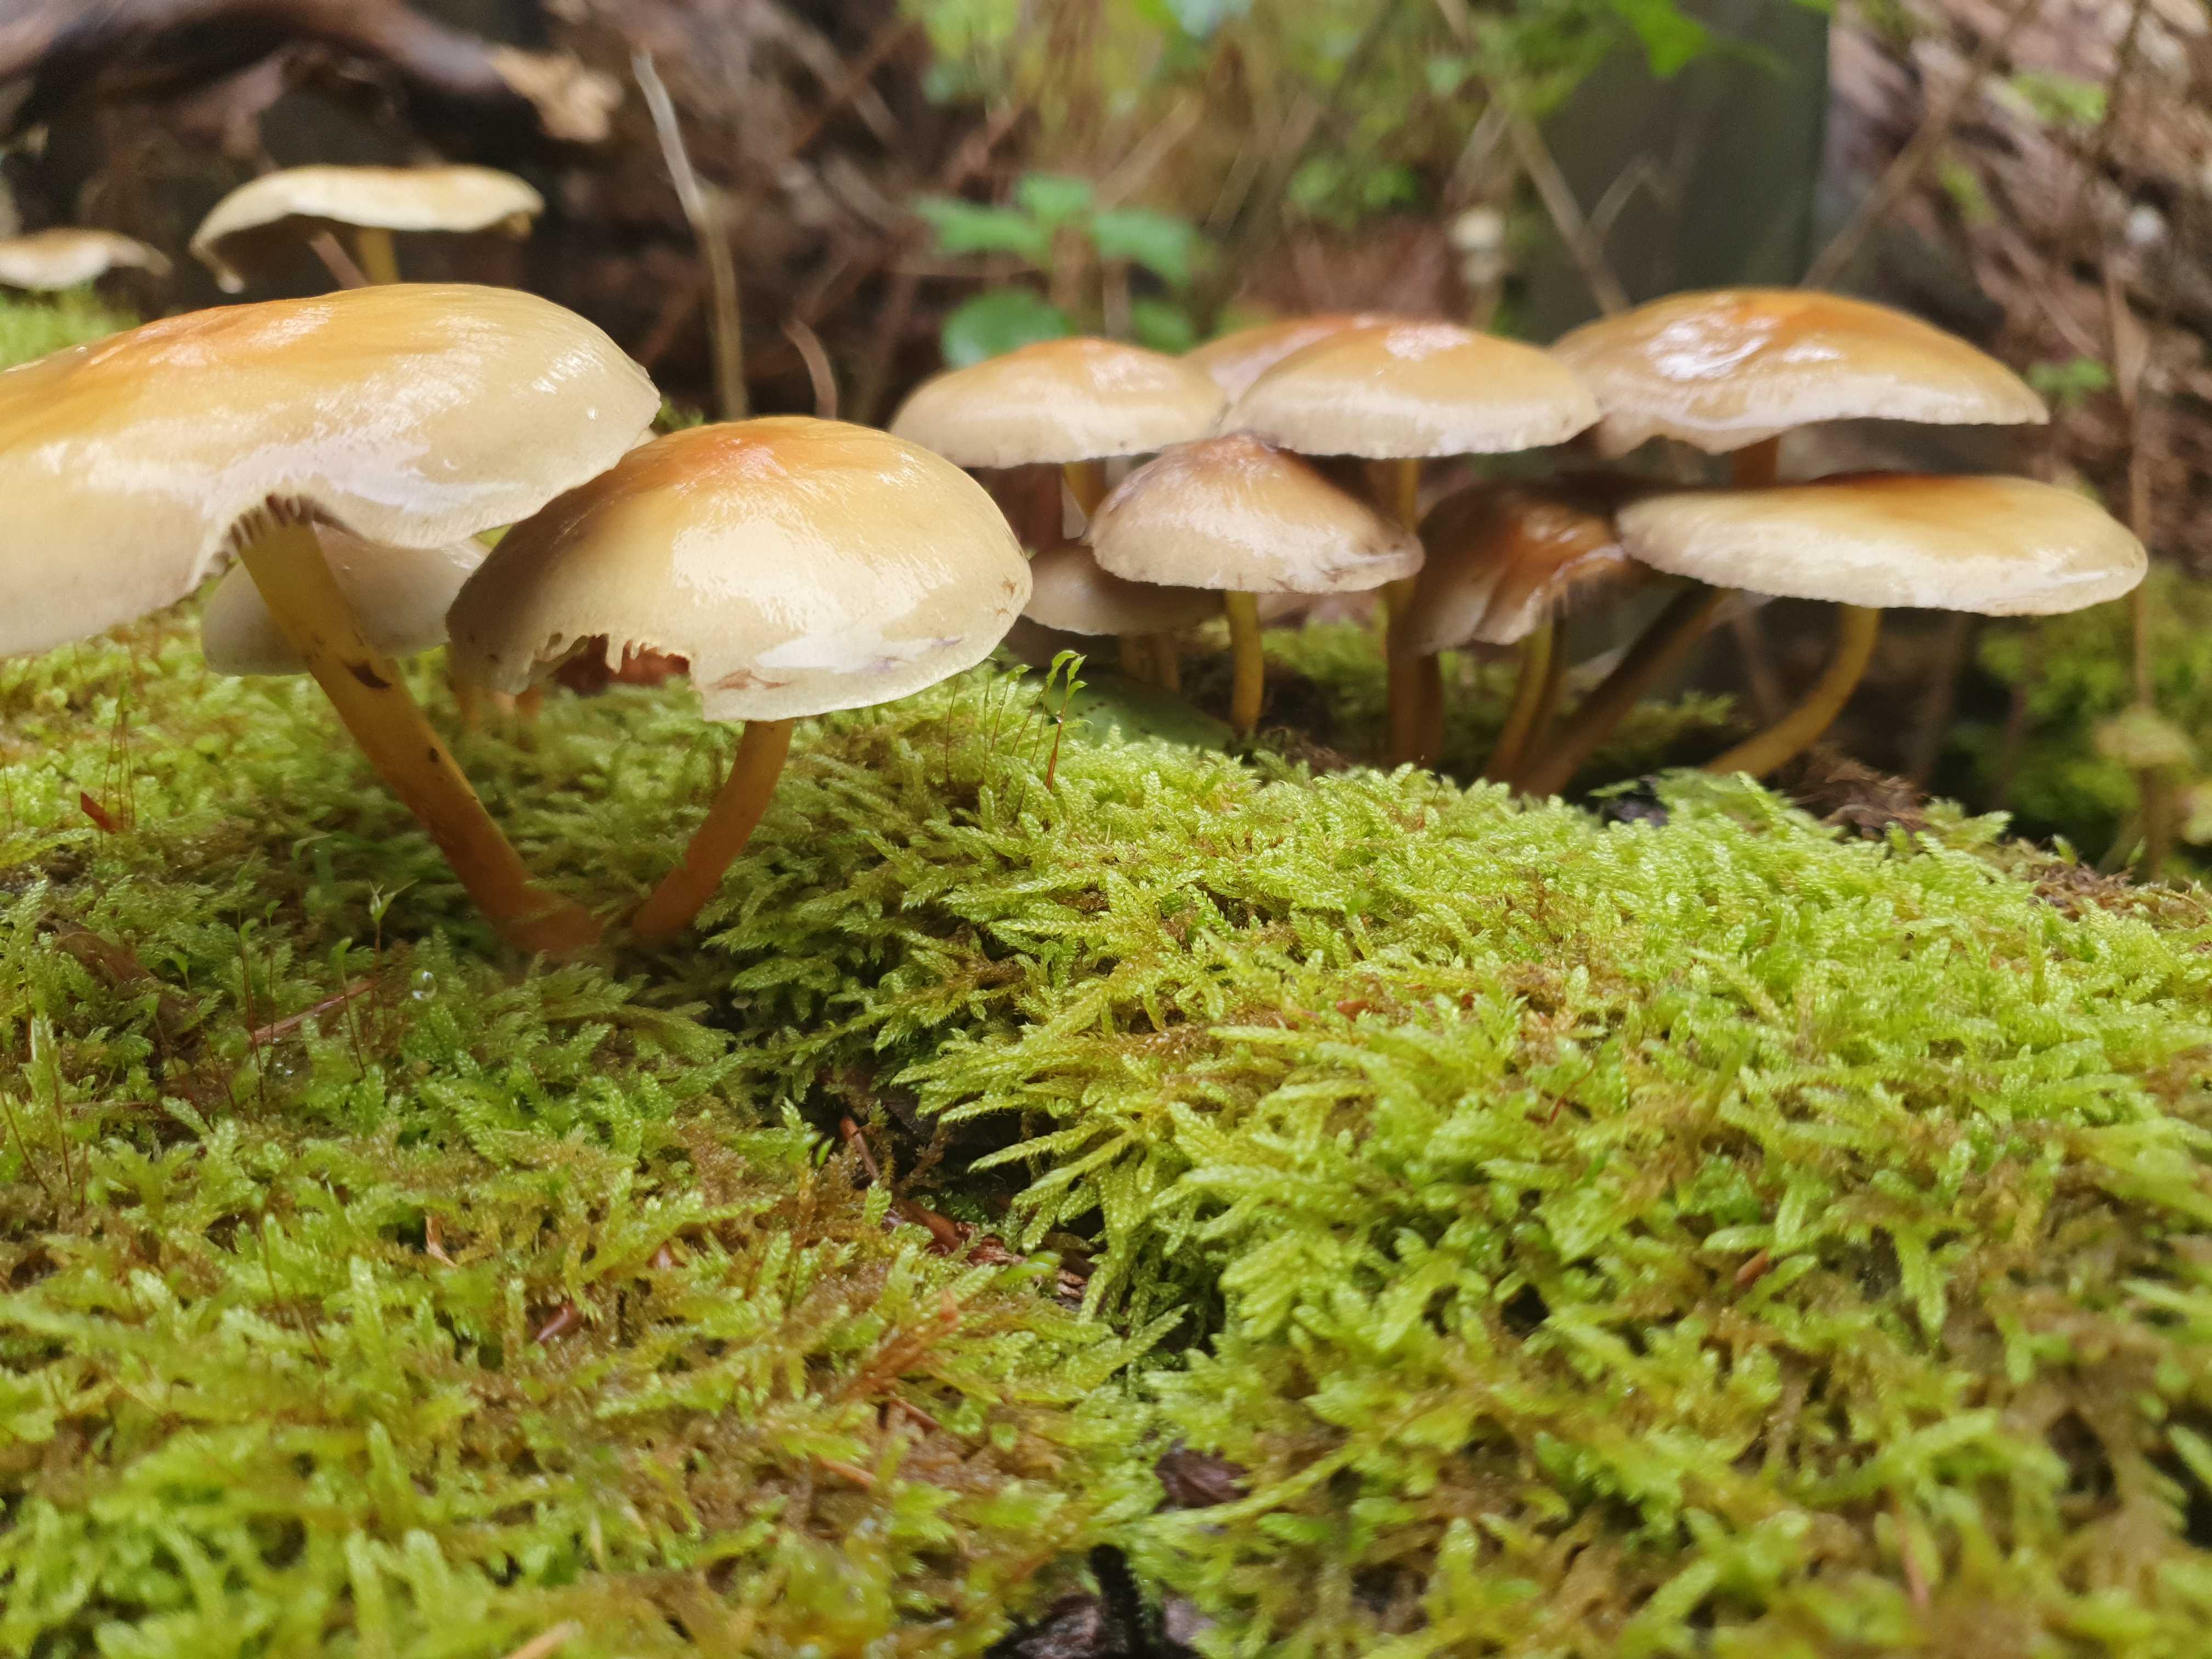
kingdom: Fungi
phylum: Basidiomycota
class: Agaricomycetes
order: Agaricales
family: Strophariaceae
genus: Hypholoma
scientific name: Hypholoma capnoides
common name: gran-svovlhat
